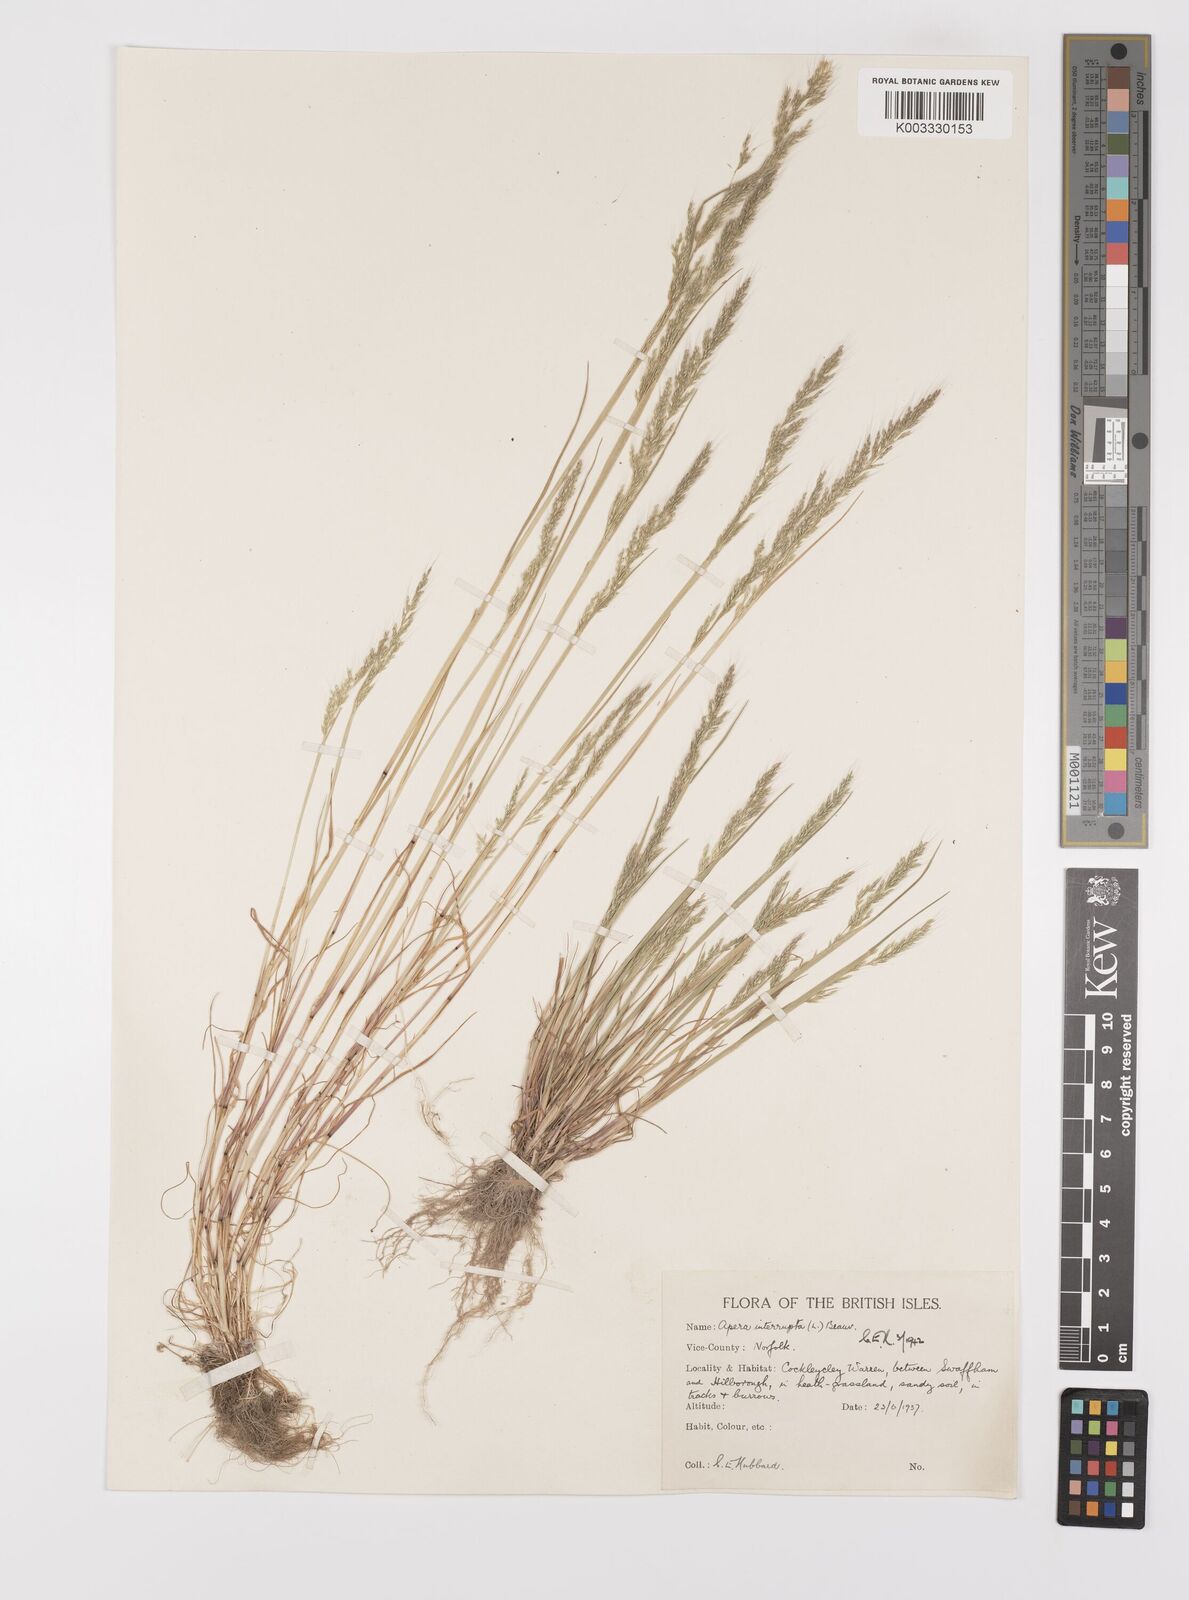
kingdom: Plantae
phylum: Tracheophyta
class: Liliopsida
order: Poales
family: Poaceae
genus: Apera
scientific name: Apera interrupta
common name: Dense silky-bent
